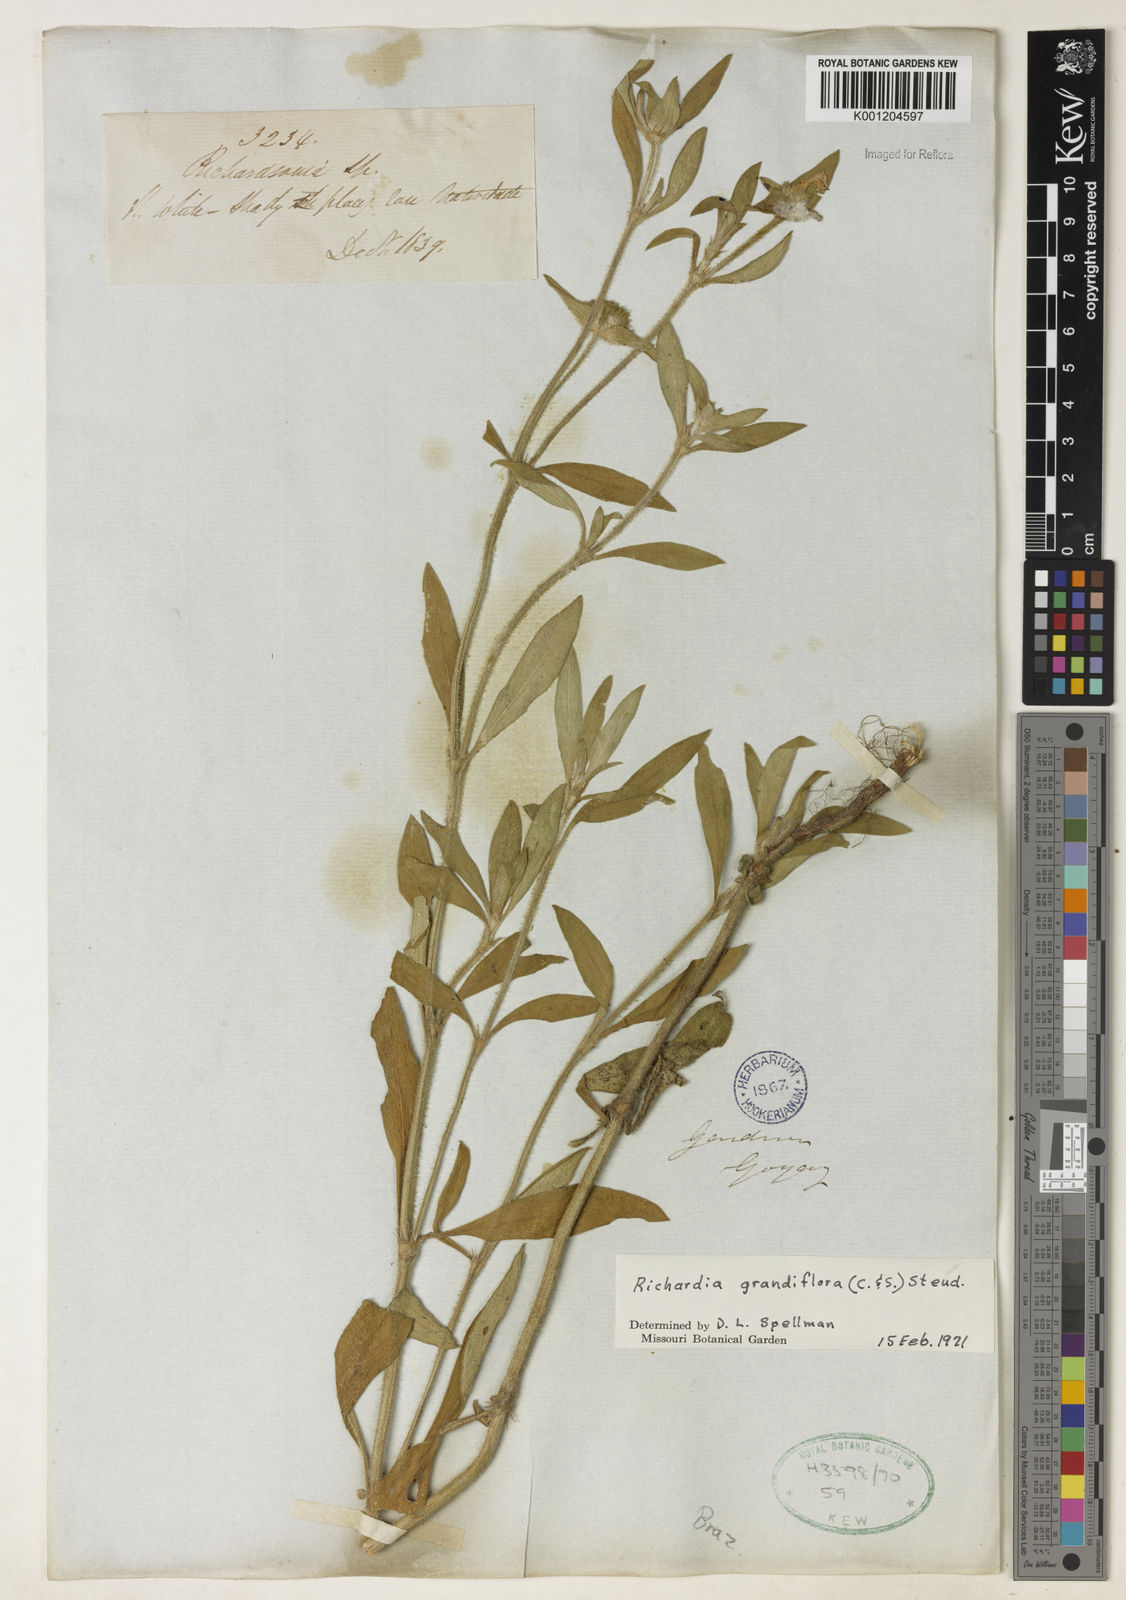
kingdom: Plantae
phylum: Tracheophyta
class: Magnoliopsida
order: Gentianales
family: Rubiaceae
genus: Richardia
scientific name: Richardia grandiflora
